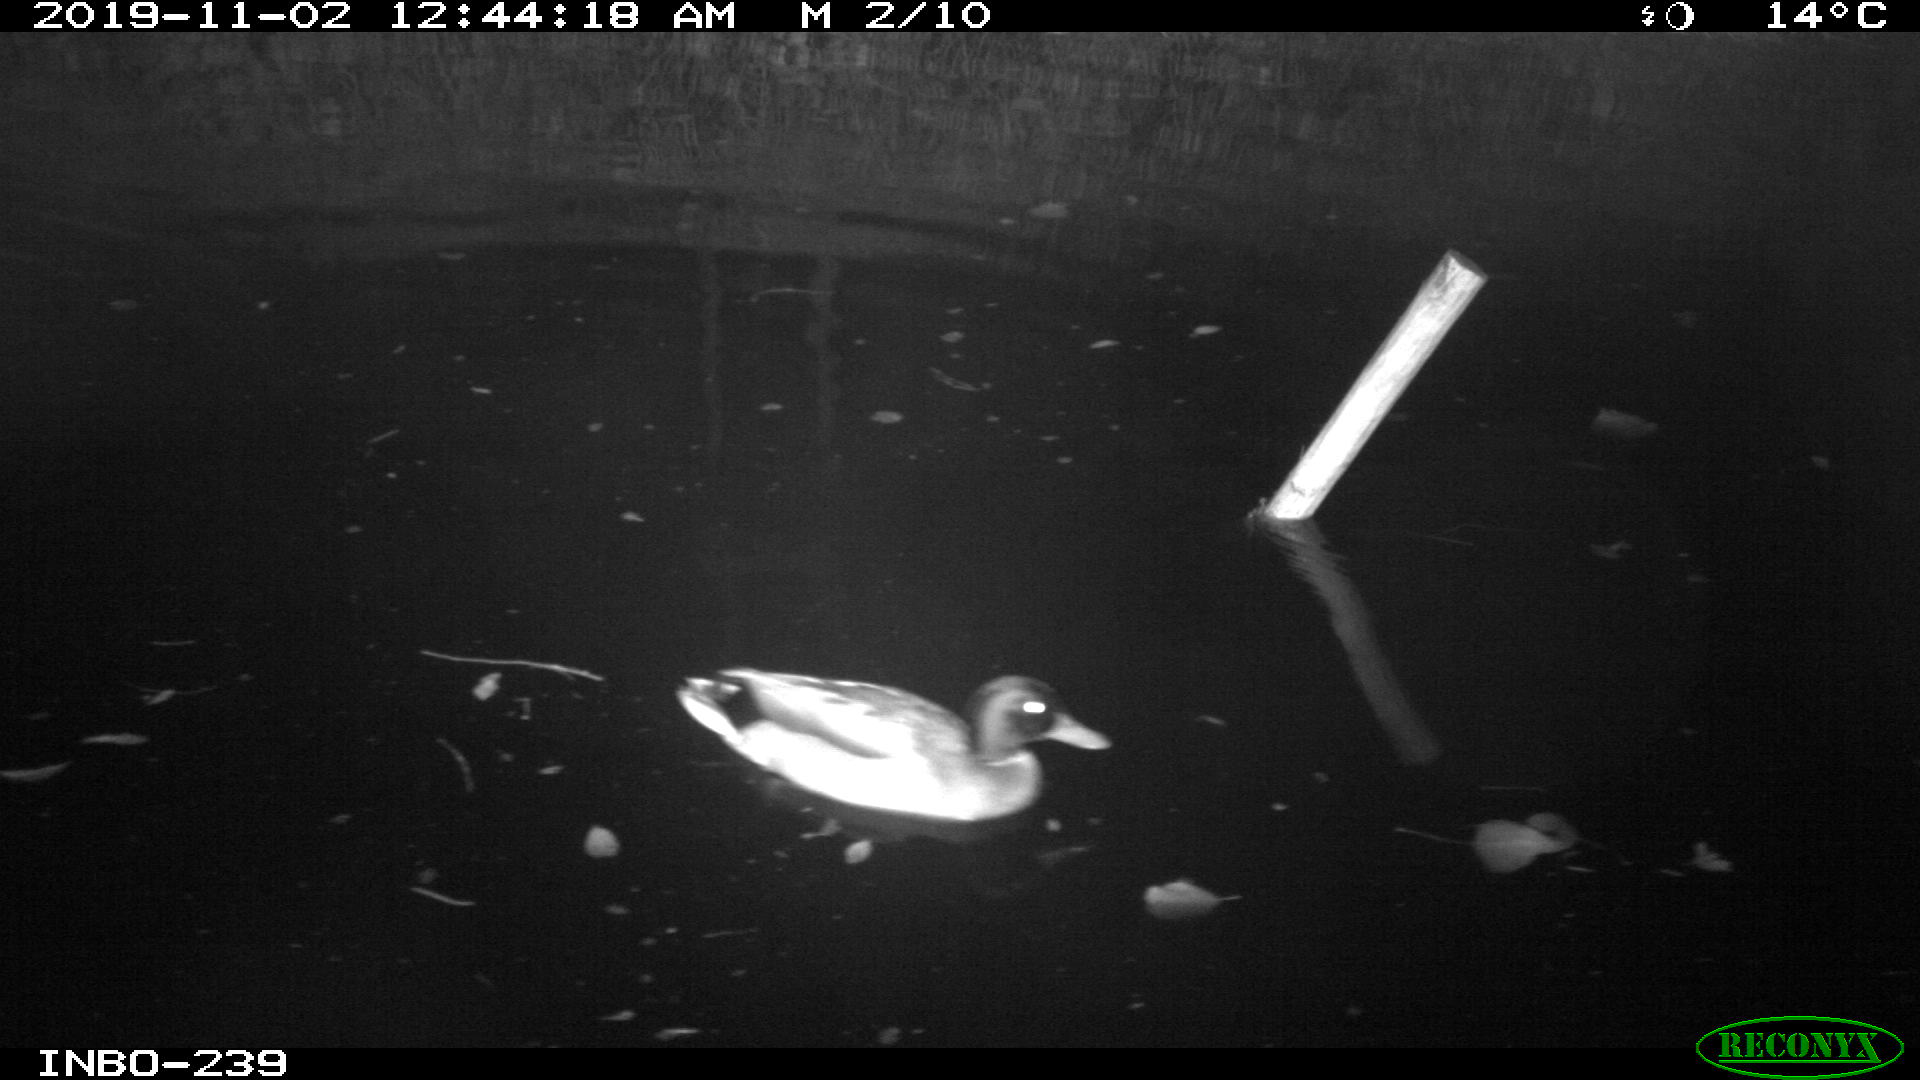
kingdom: Animalia
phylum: Chordata
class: Aves
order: Anseriformes
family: Anatidae
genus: Anas
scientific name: Anas platyrhynchos
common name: Mallard
